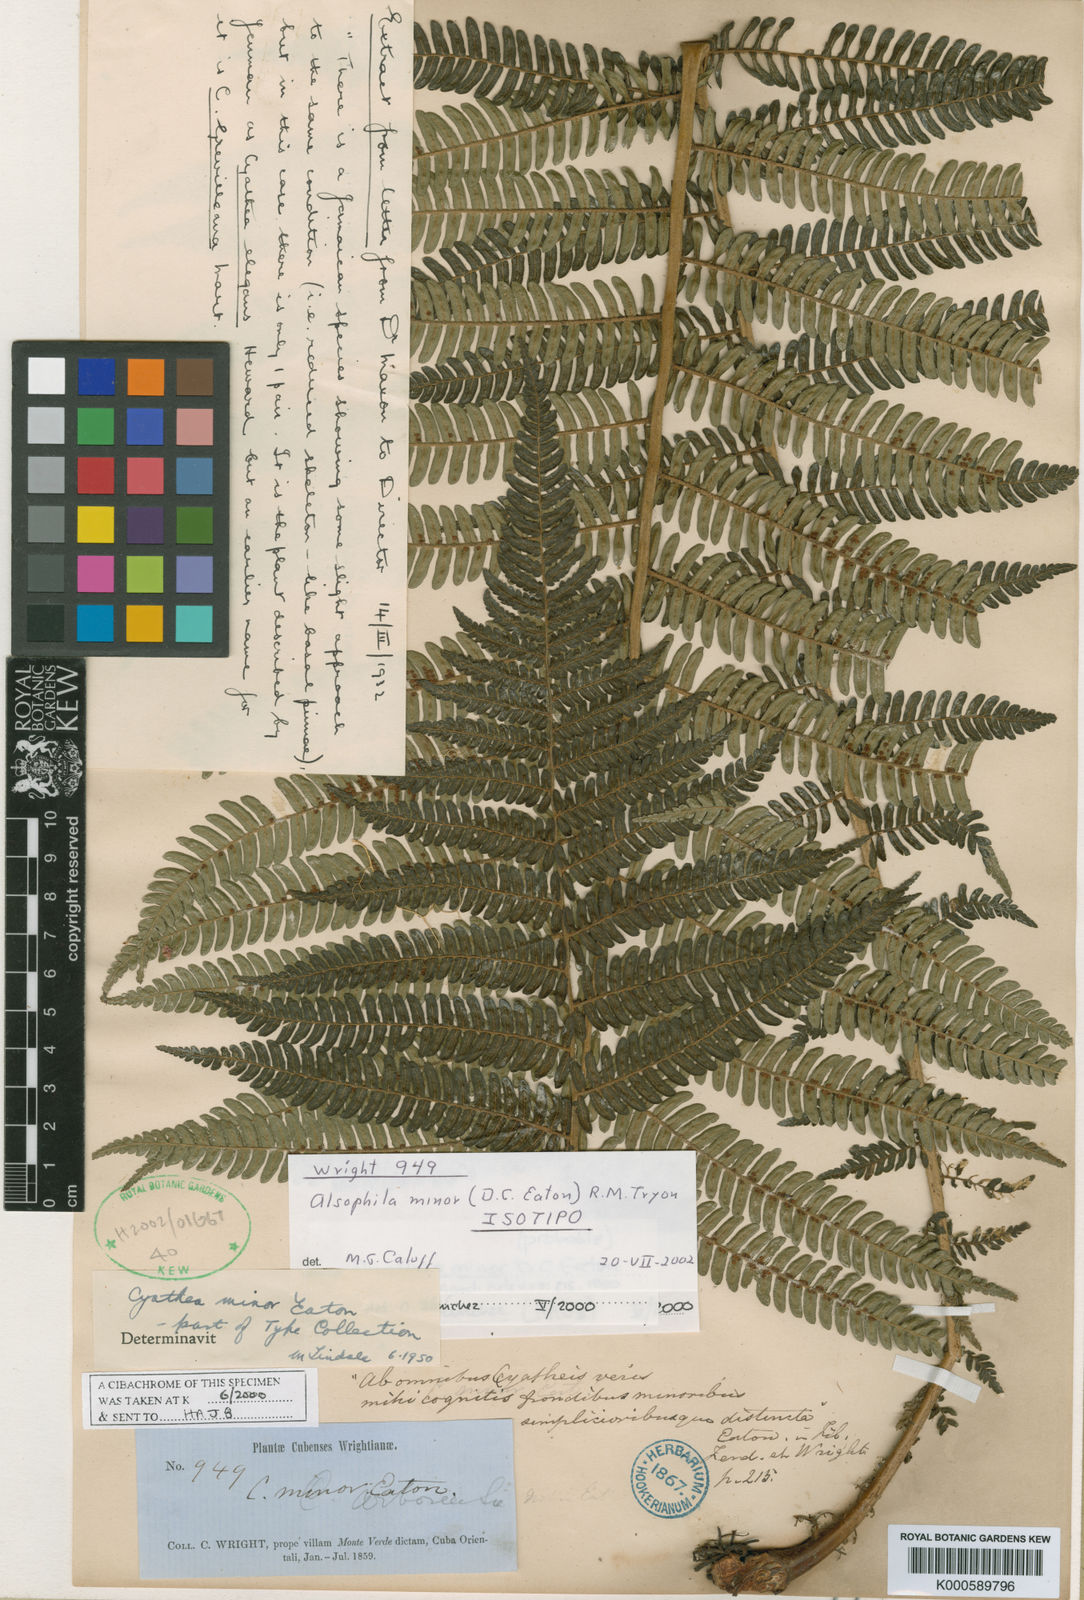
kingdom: Plantae
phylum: Tracheophyta
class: Polypodiopsida
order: Cyatheales
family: Cyatheaceae
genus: Alsophila
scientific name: Alsophila minor
